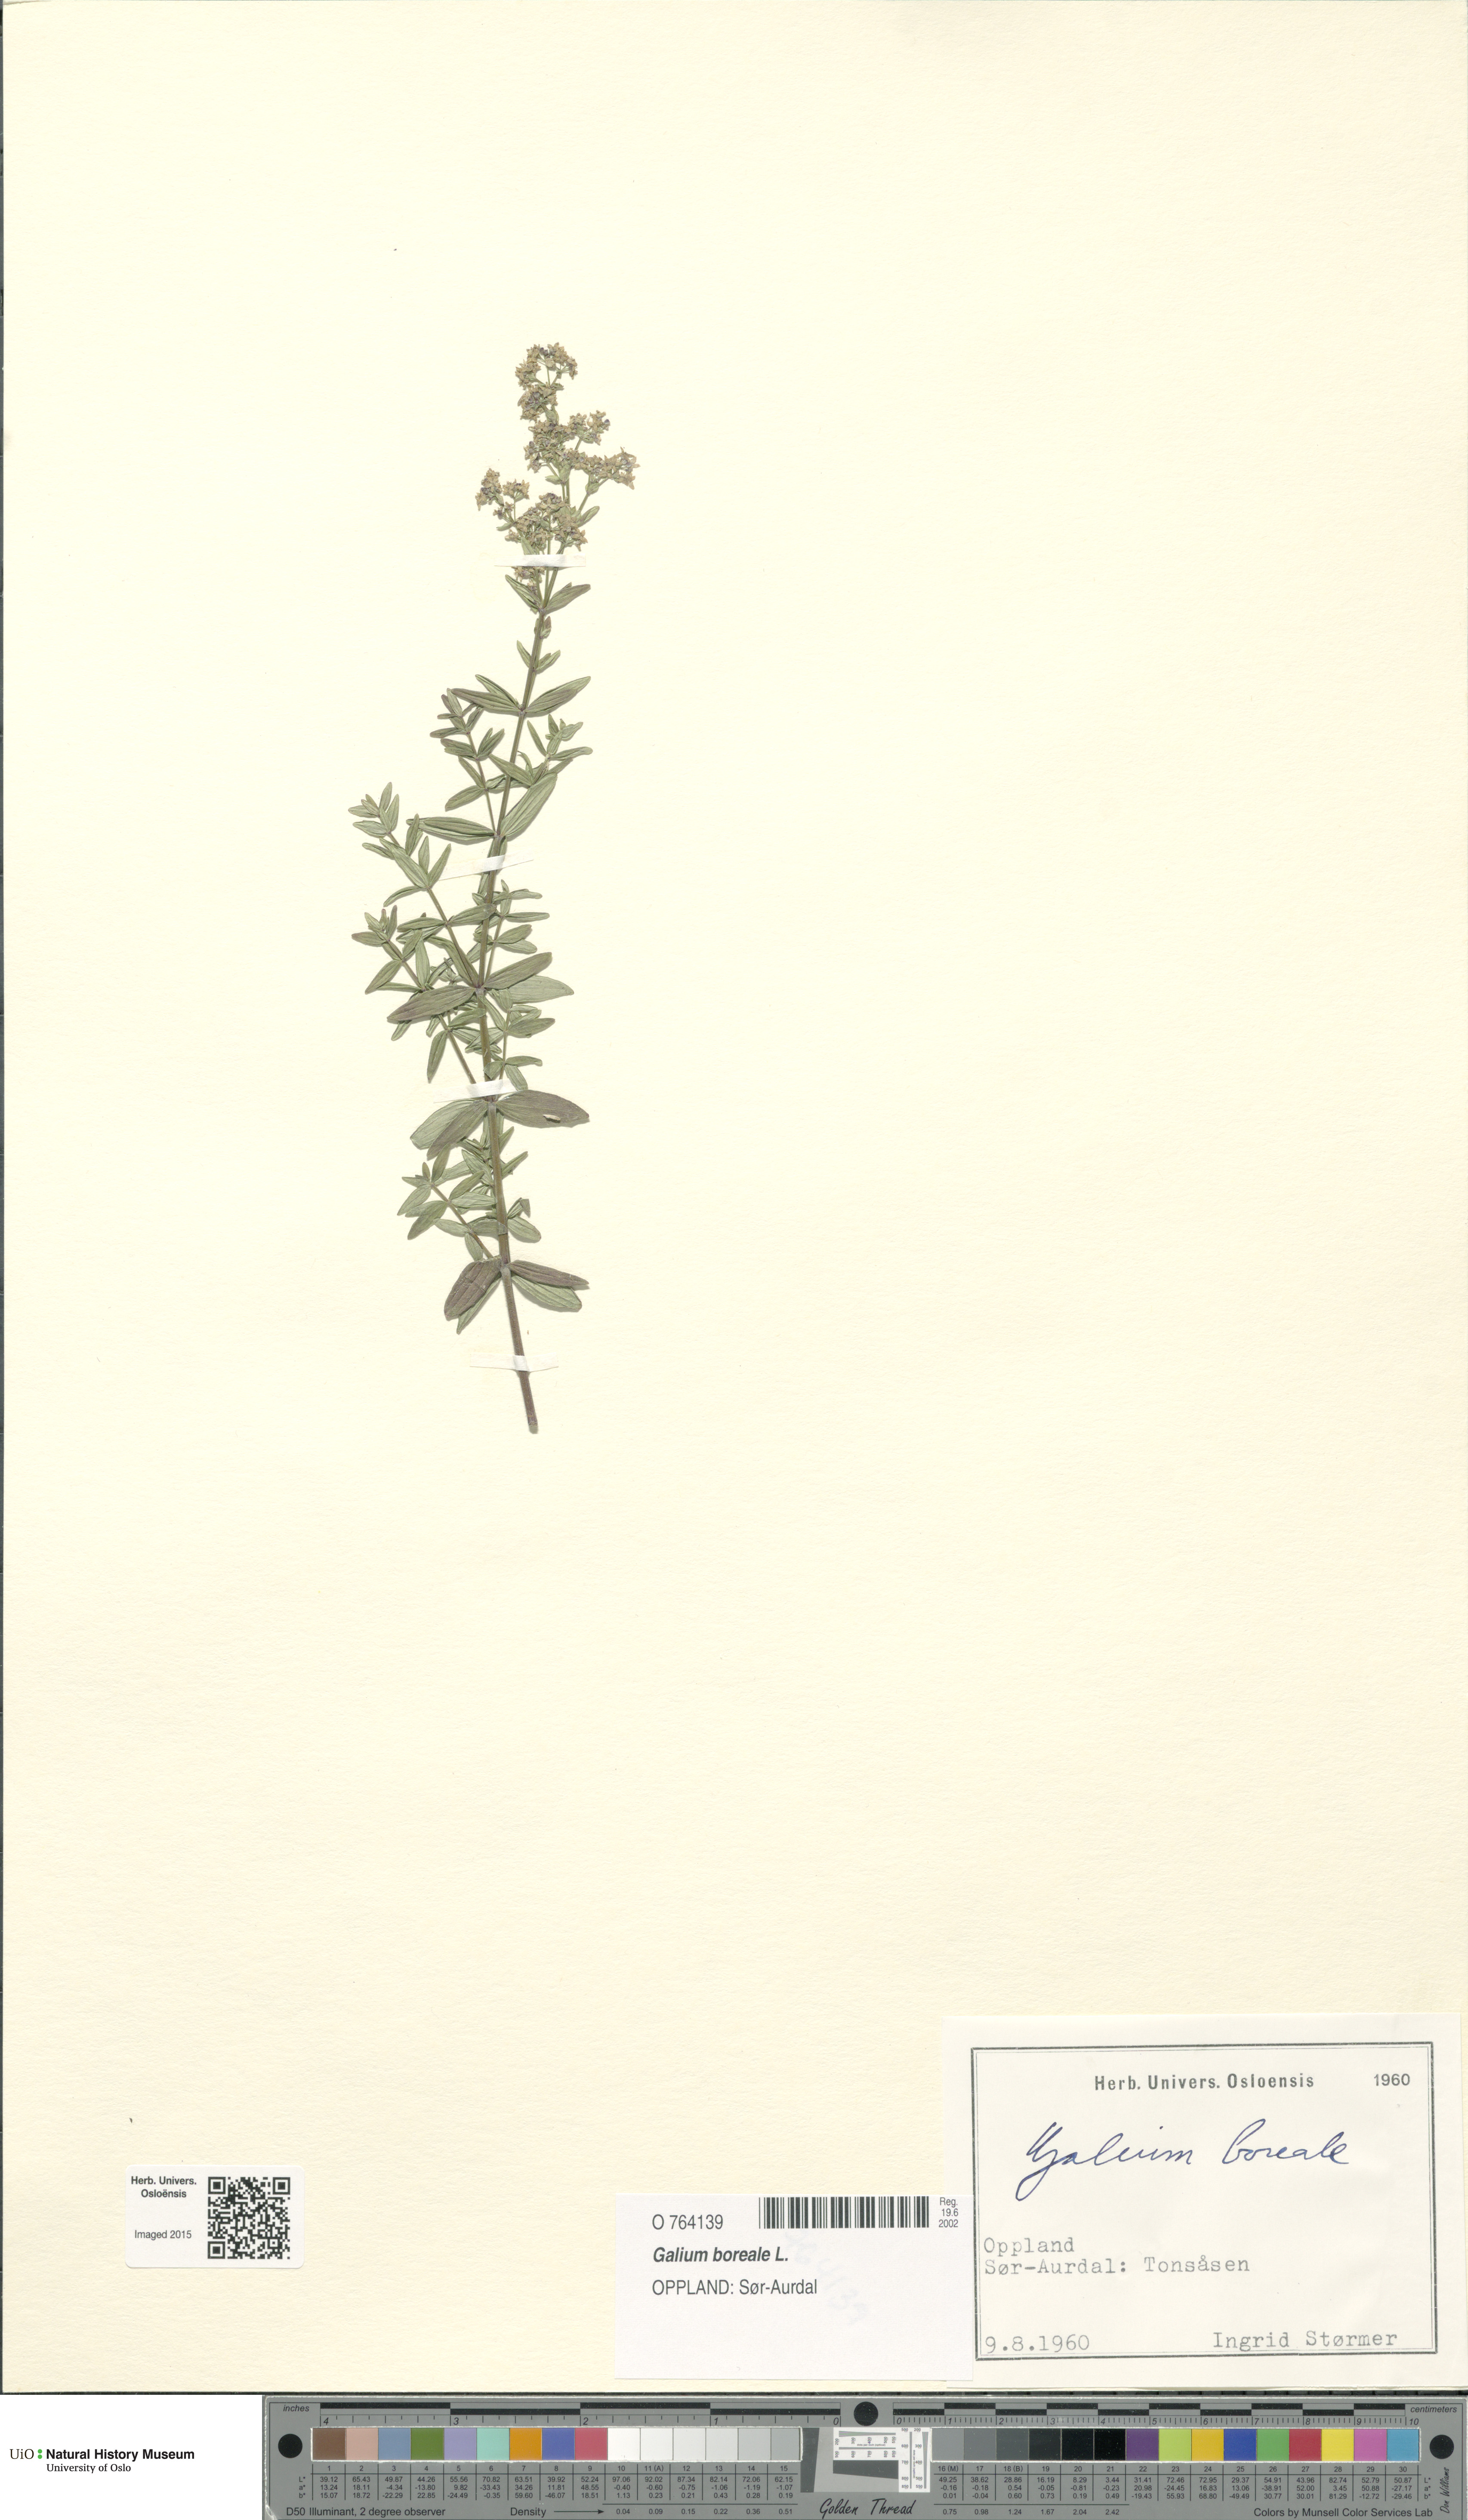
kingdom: Plantae
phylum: Tracheophyta
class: Magnoliopsida
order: Gentianales
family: Rubiaceae
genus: Galium
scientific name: Galium boreale
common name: Northern bedstraw
